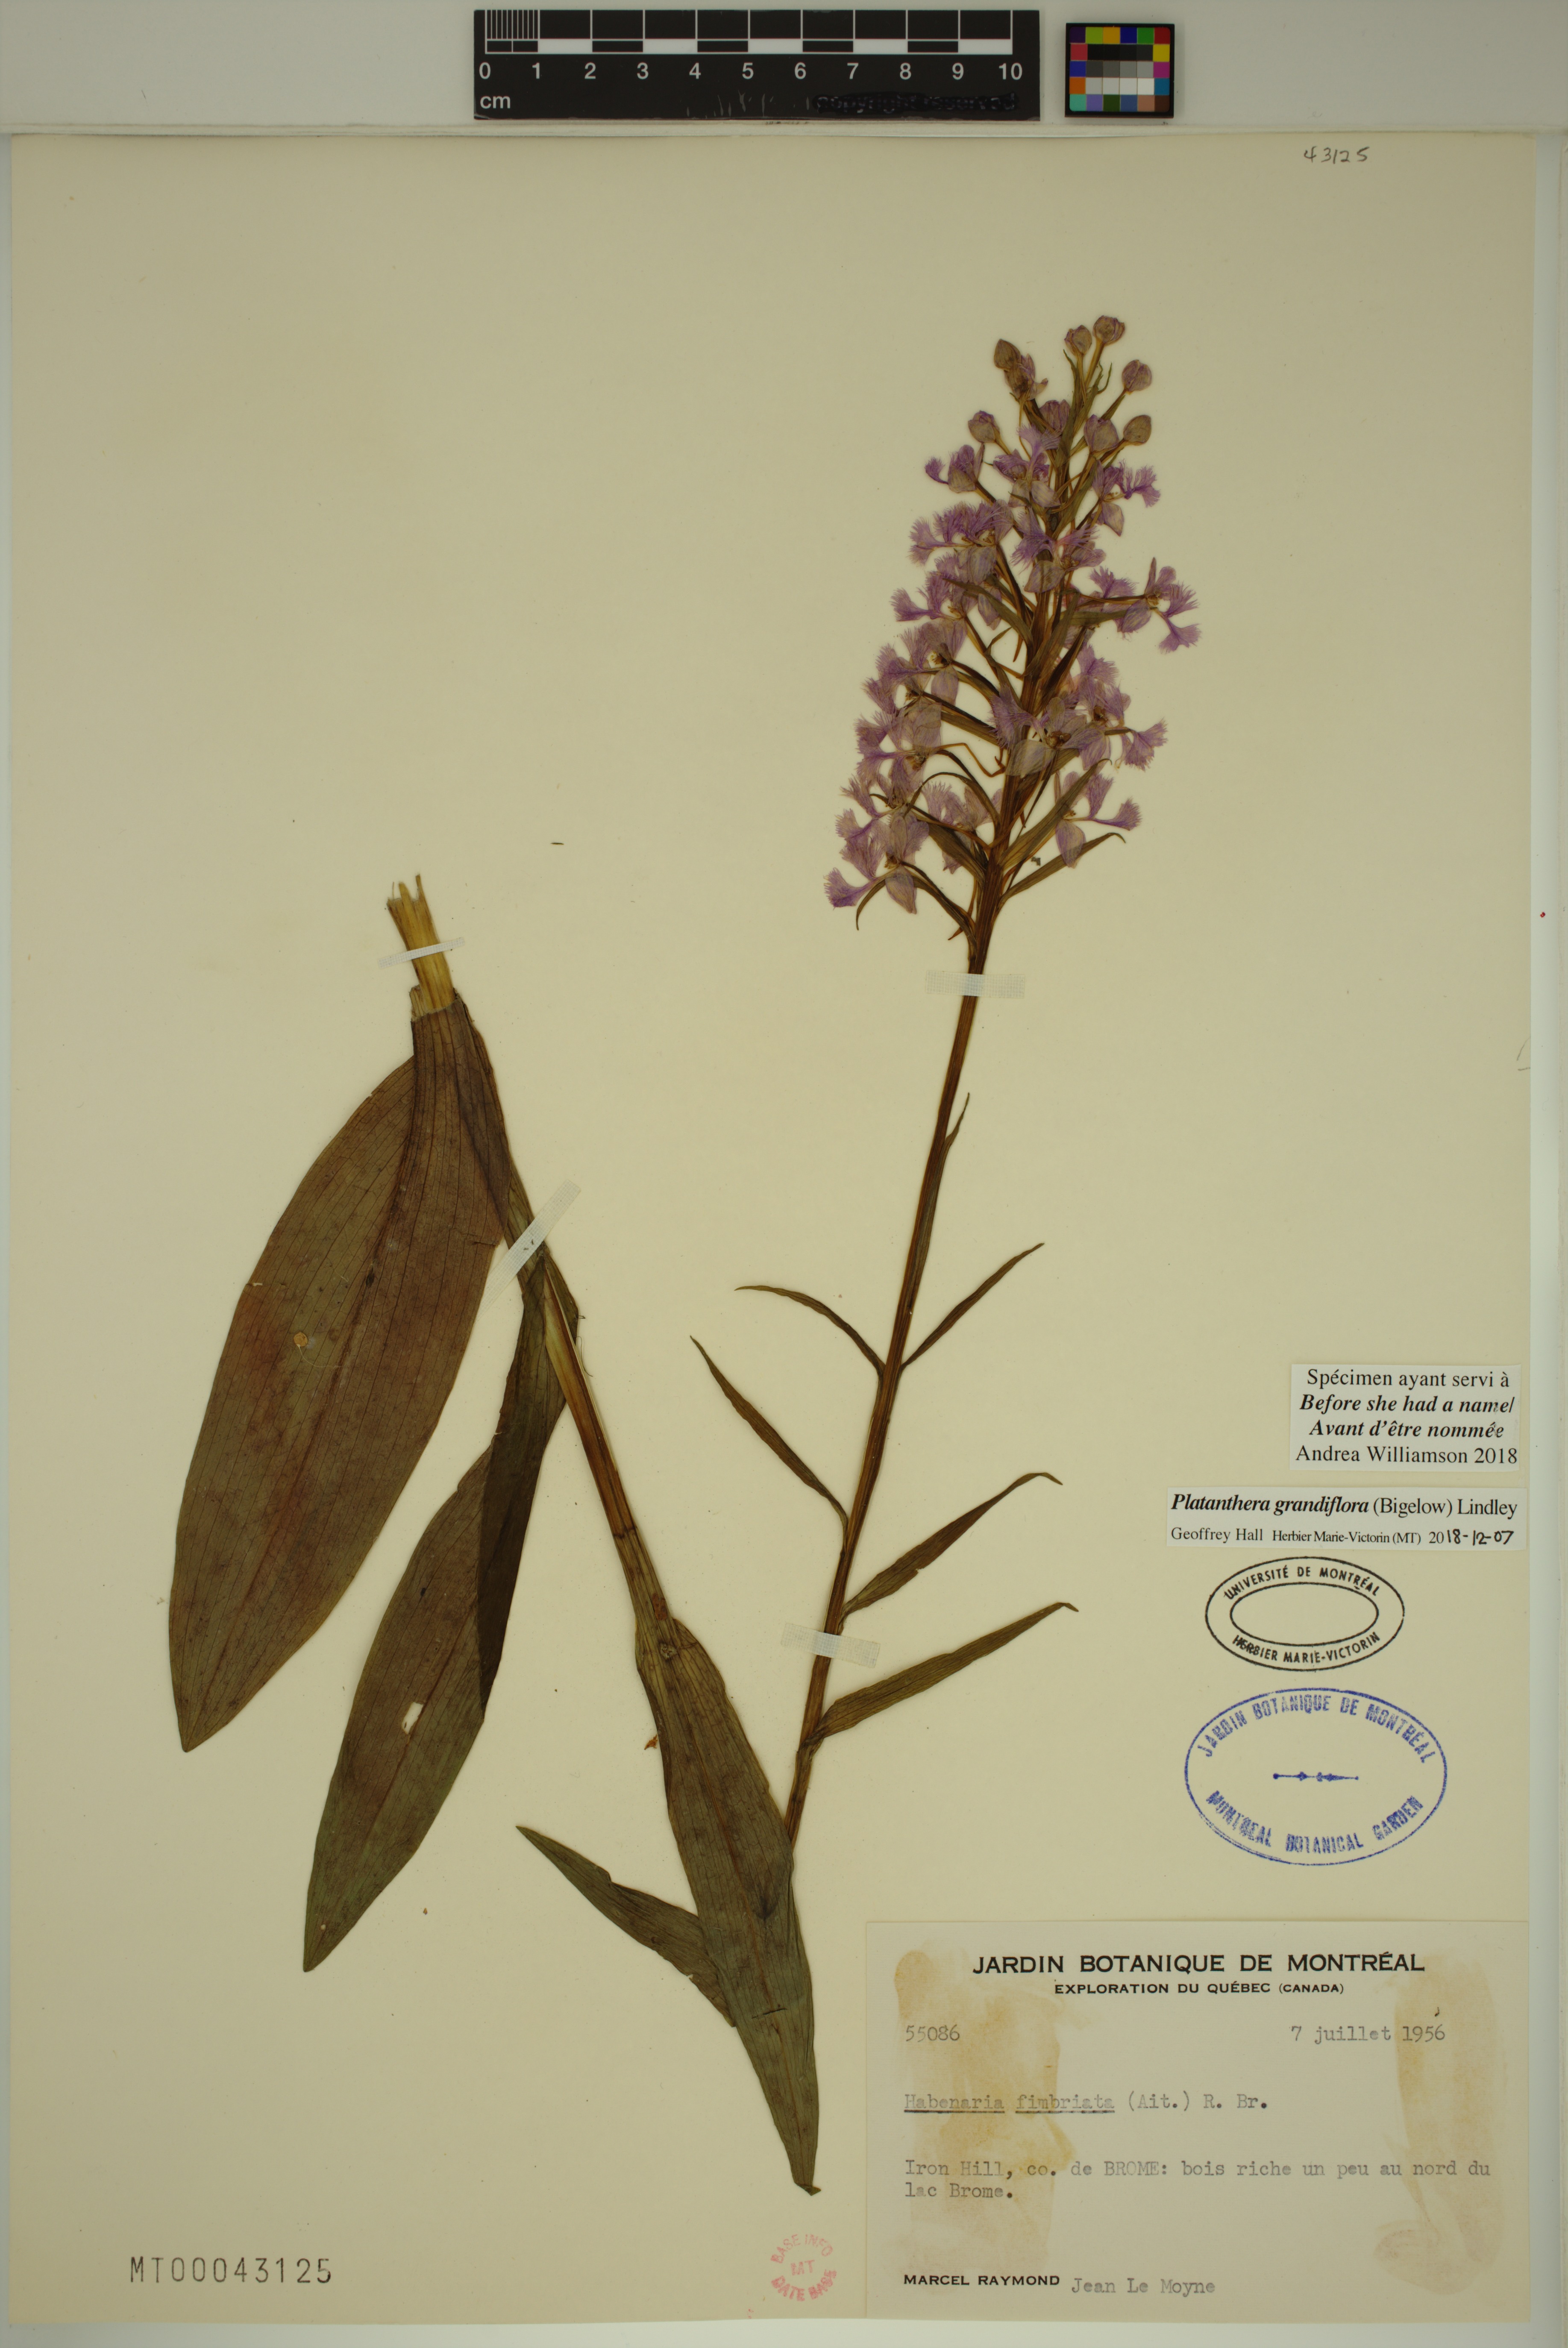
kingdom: Plantae
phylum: Tracheophyta
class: Liliopsida
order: Asparagales
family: Orchidaceae
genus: Platanthera
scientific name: Platanthera grandiflora
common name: Greater purple fringed orchid
